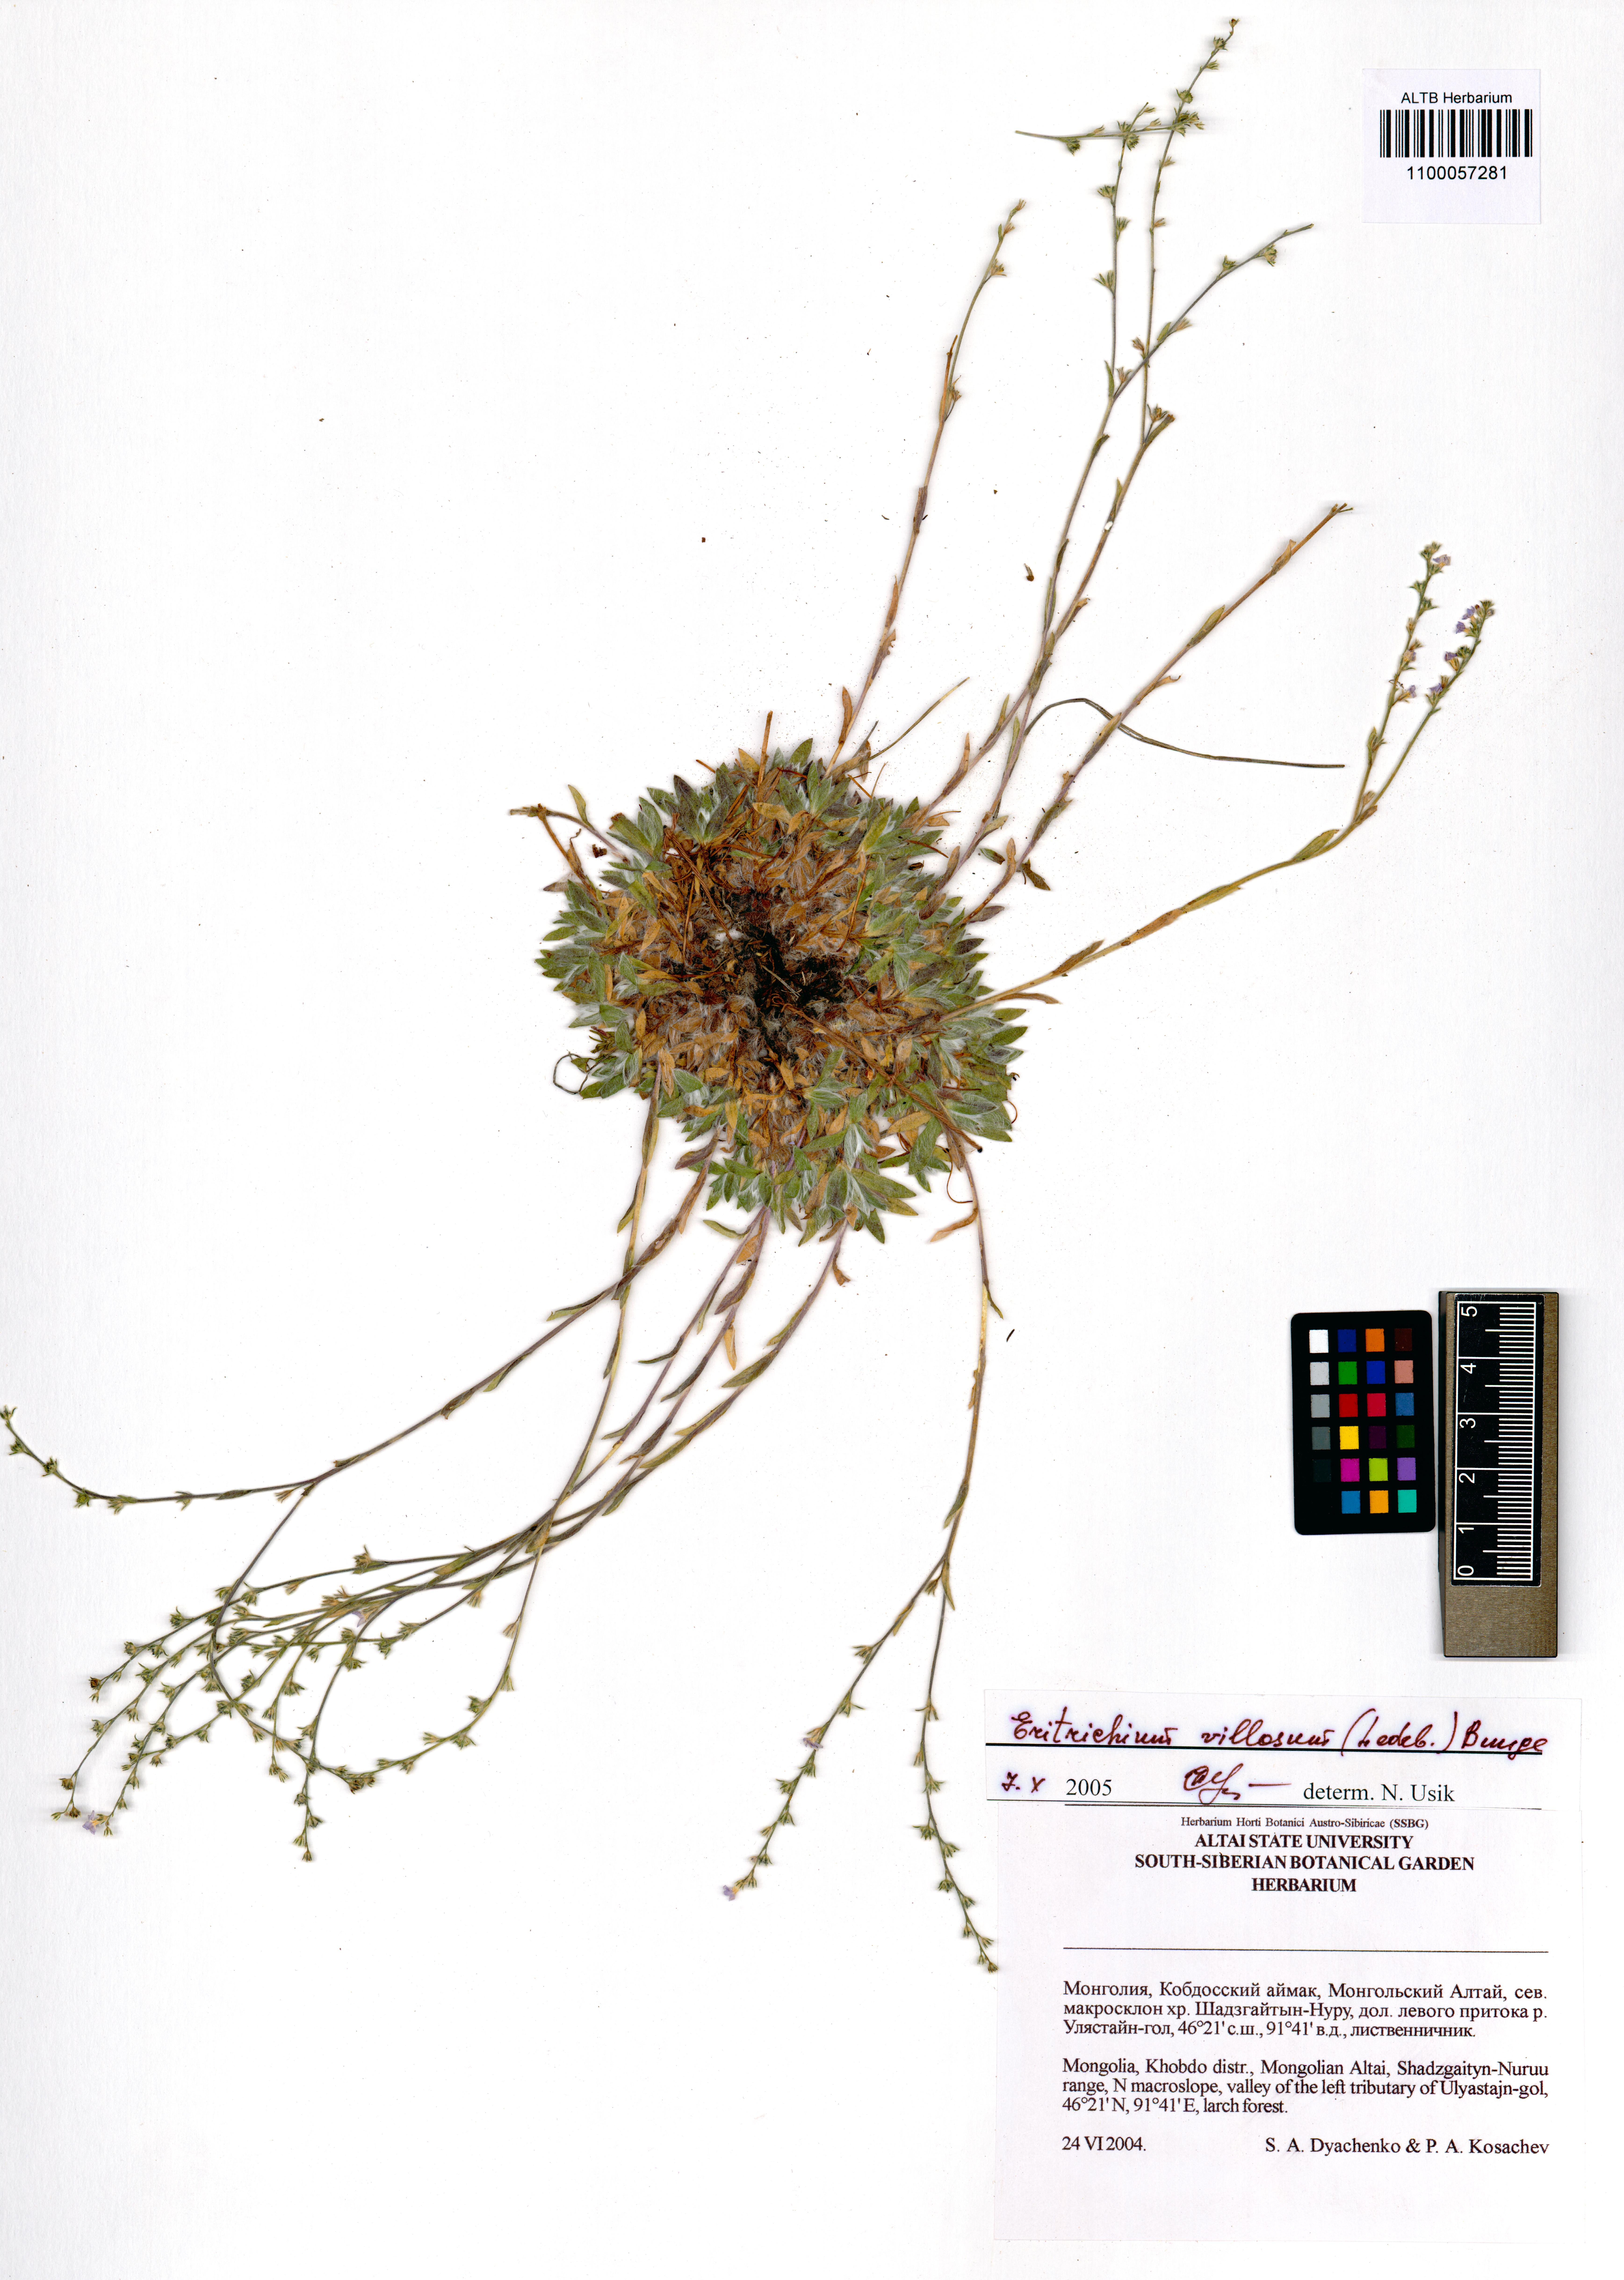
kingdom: Plantae
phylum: Tracheophyta
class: Magnoliopsida
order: Boraginales
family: Boraginaceae
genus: Eritrichium
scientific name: Eritrichium villosum
